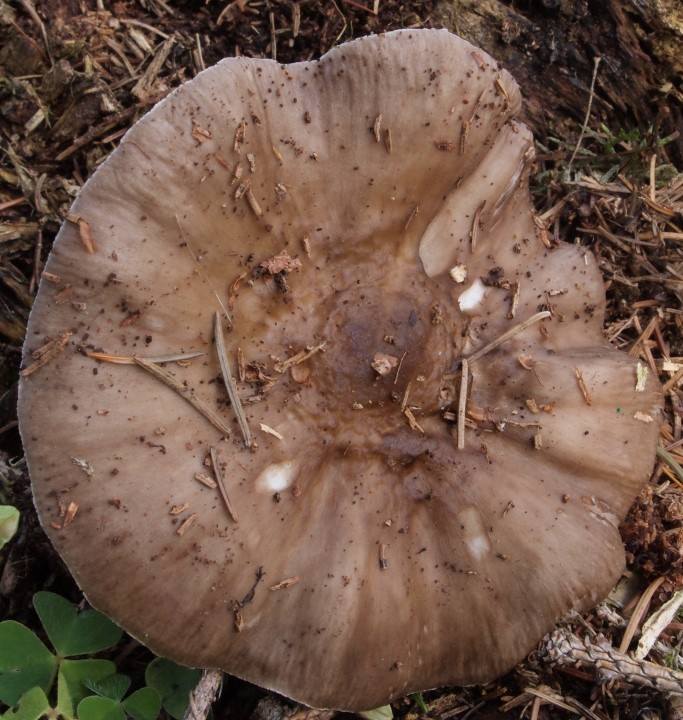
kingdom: Fungi
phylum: Basidiomycota
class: Agaricomycetes
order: Agaricales
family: Pluteaceae
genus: Pluteus
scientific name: Pluteus pouzarianus
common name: plantage-skærmhat
